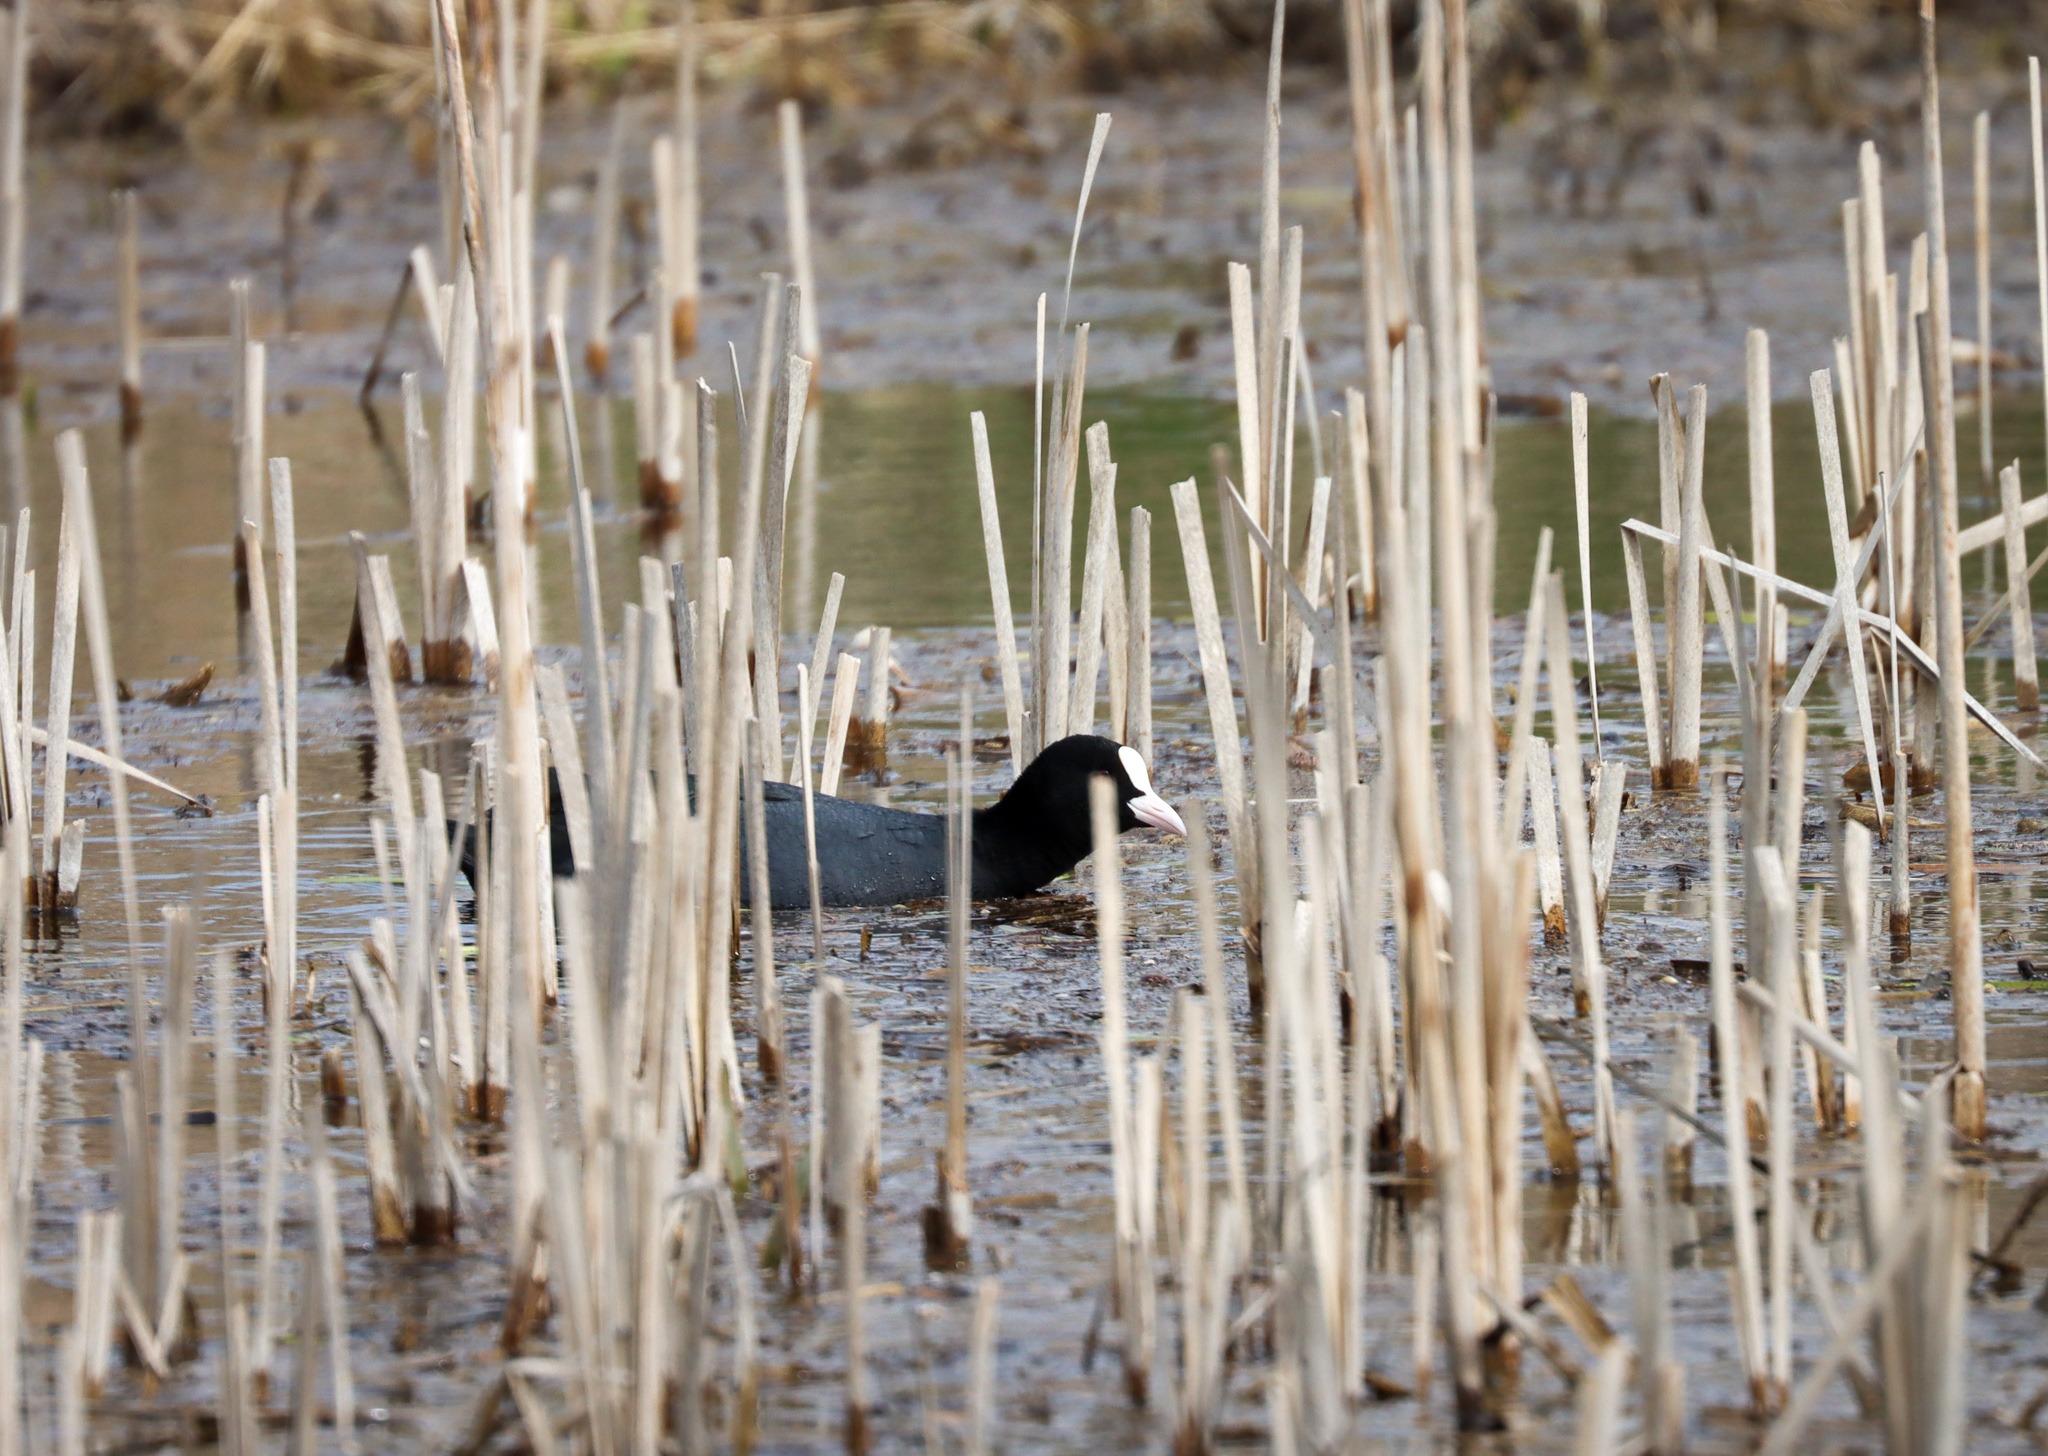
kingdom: Animalia
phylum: Chordata
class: Aves
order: Gruiformes
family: Rallidae
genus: Fulica
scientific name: Fulica atra
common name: Blishøne
